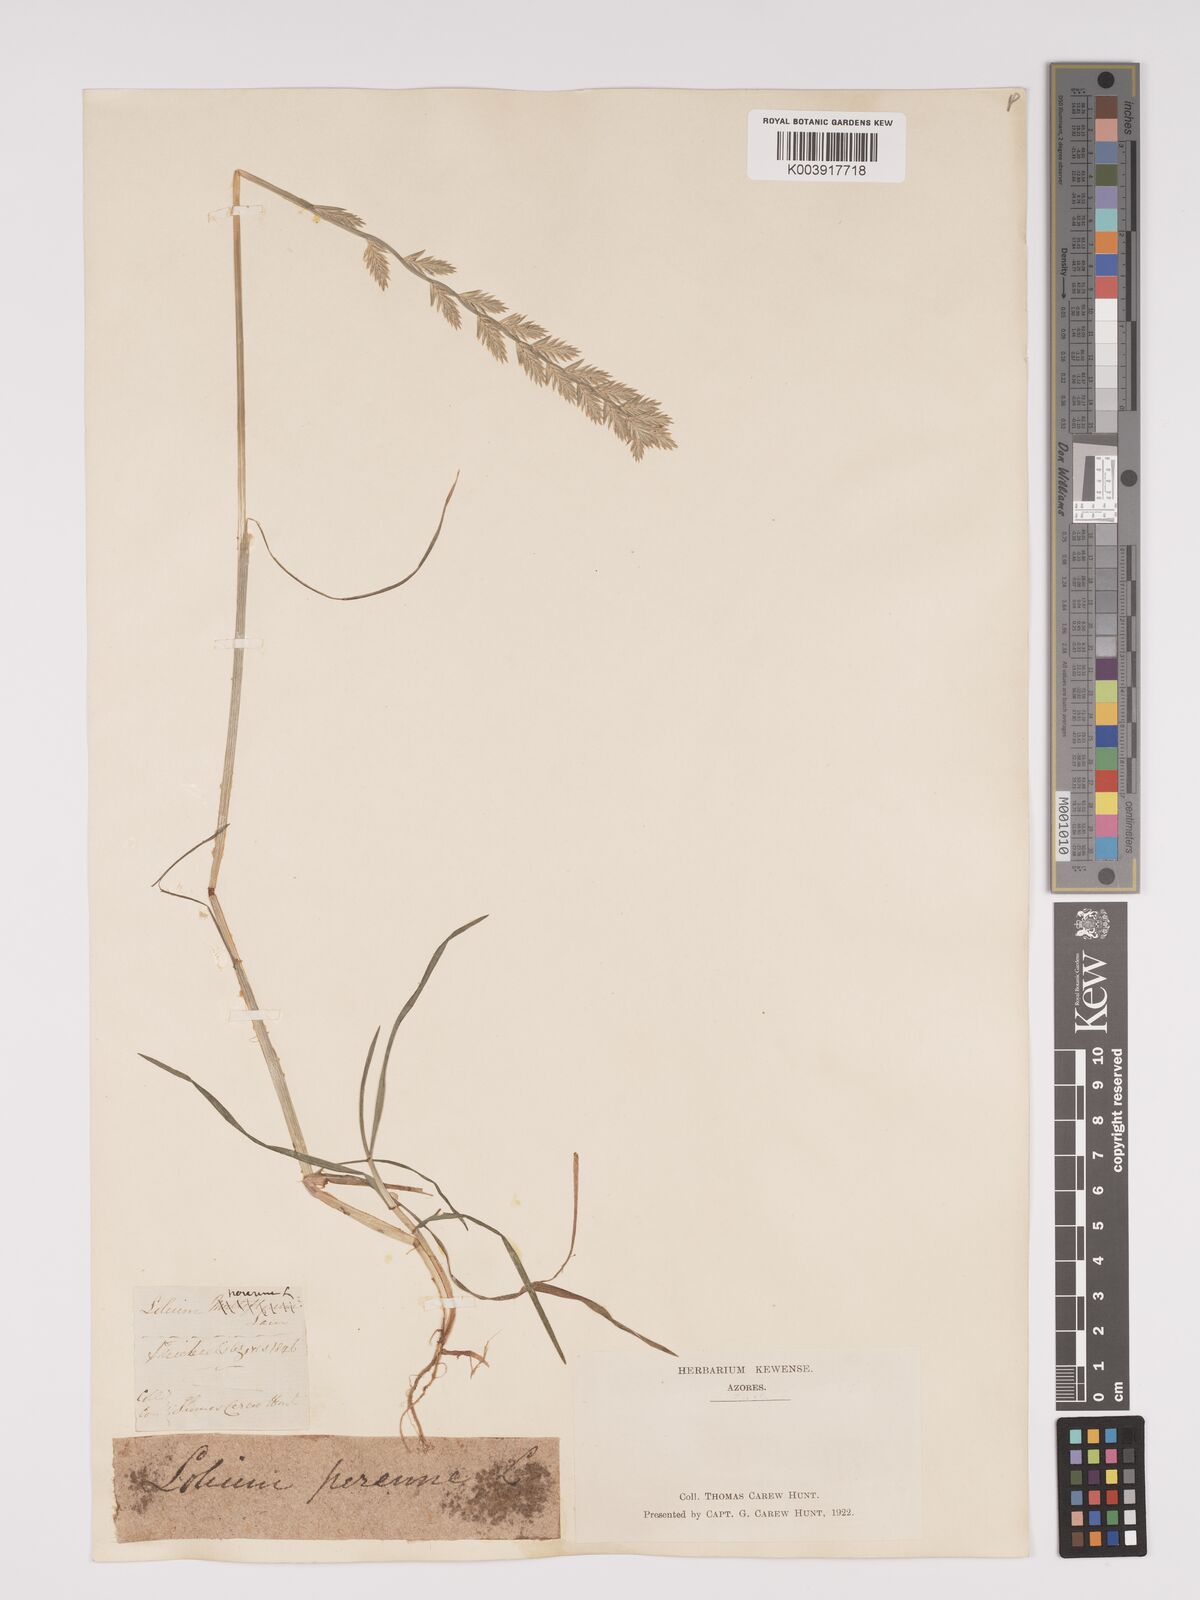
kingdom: Plantae
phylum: Tracheophyta
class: Liliopsida
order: Poales
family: Poaceae
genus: Lolium
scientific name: Lolium perenne
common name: Perennial ryegrass
